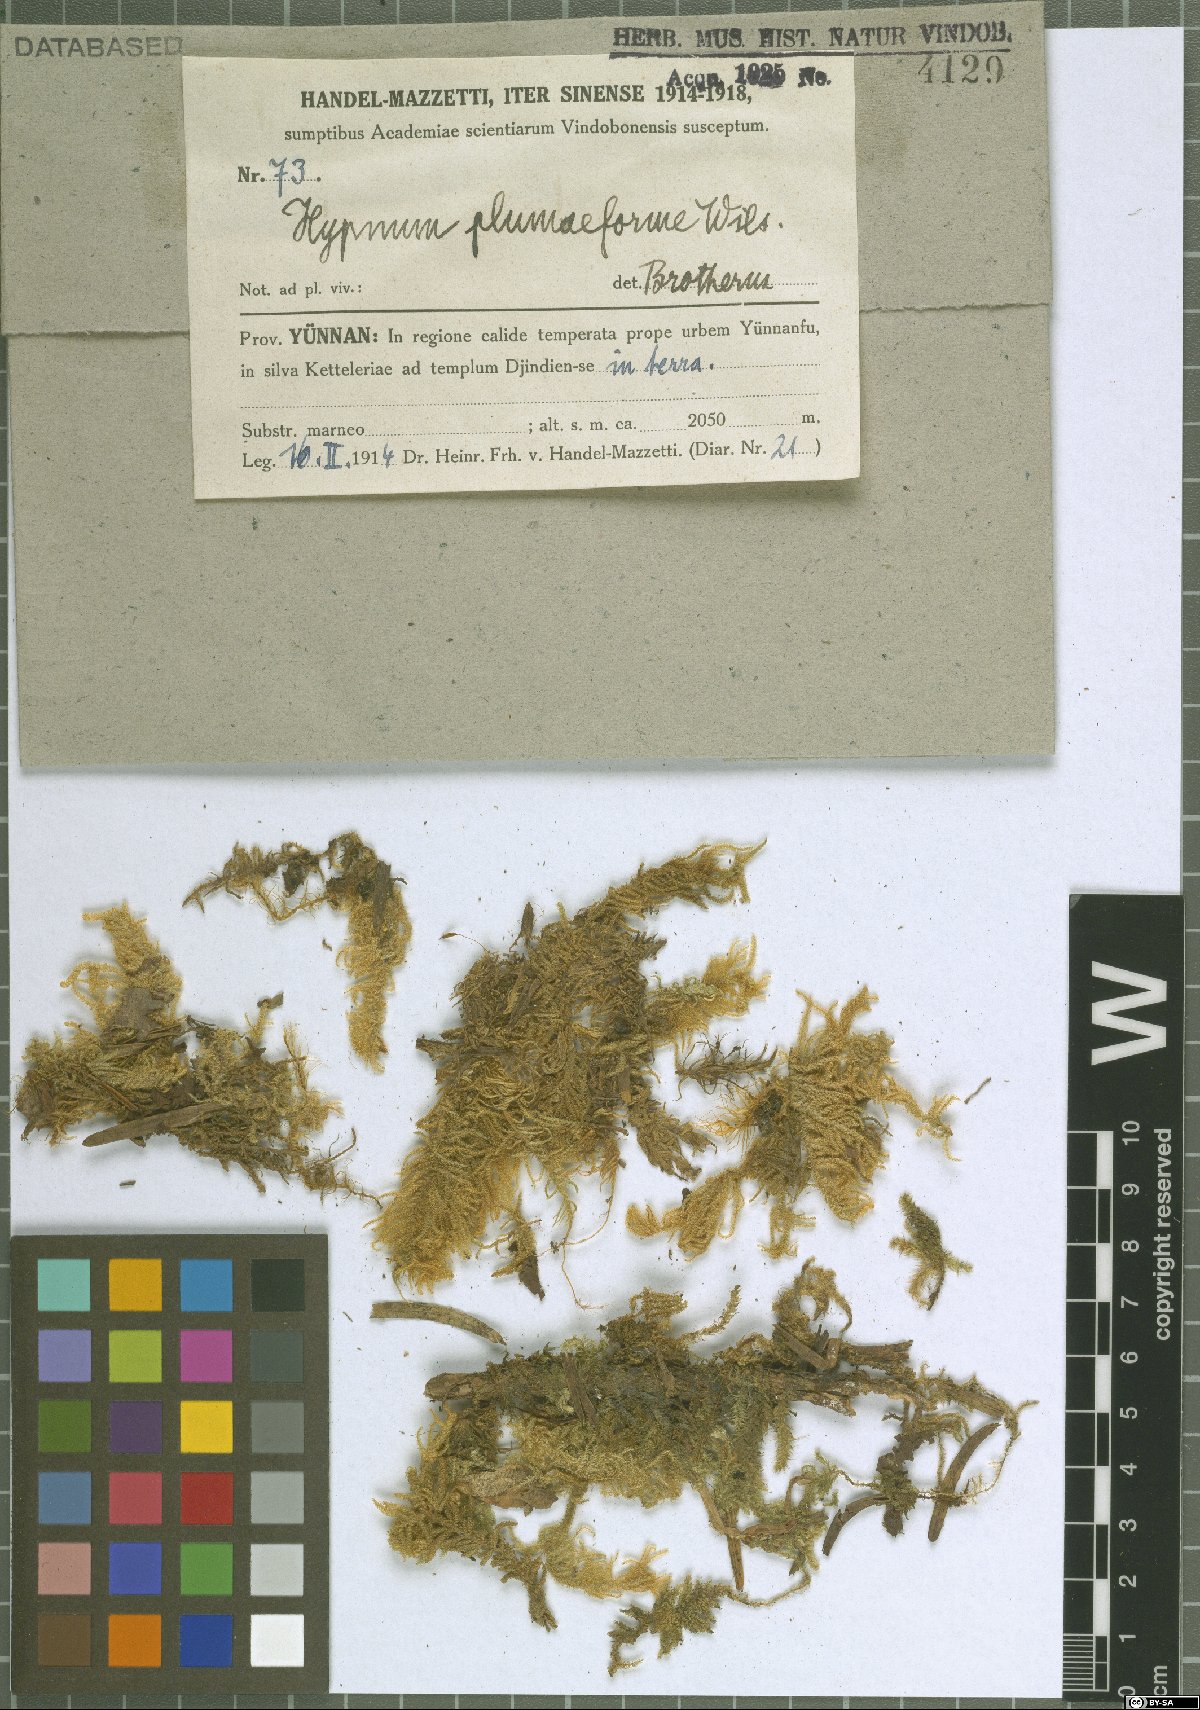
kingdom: Plantae
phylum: Bryophyta
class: Bryopsida
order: Hypnales
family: Hypnaceae
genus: Hypnum
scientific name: Hypnum plumaeforme
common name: Cypress-leaved plaitmoss
